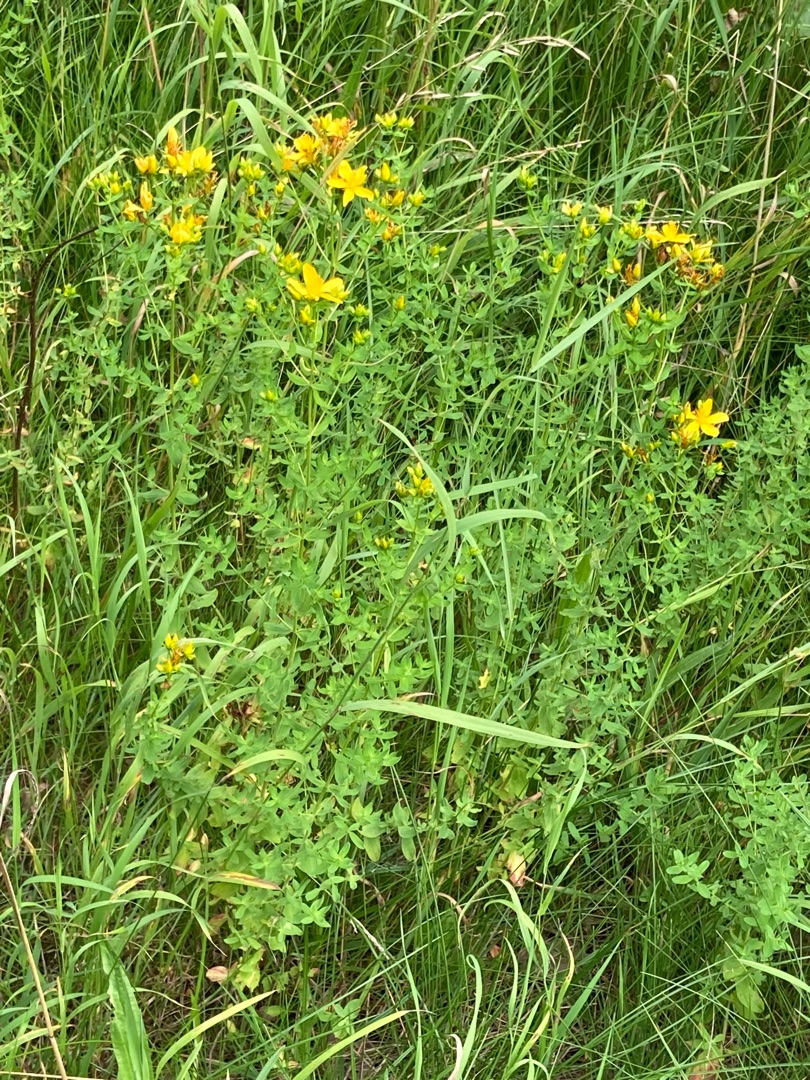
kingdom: Plantae
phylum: Tracheophyta
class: Magnoliopsida
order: Malpighiales
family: Hypericaceae
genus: Hypericum
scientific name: Hypericum perforatum
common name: Prikbladet perikon
